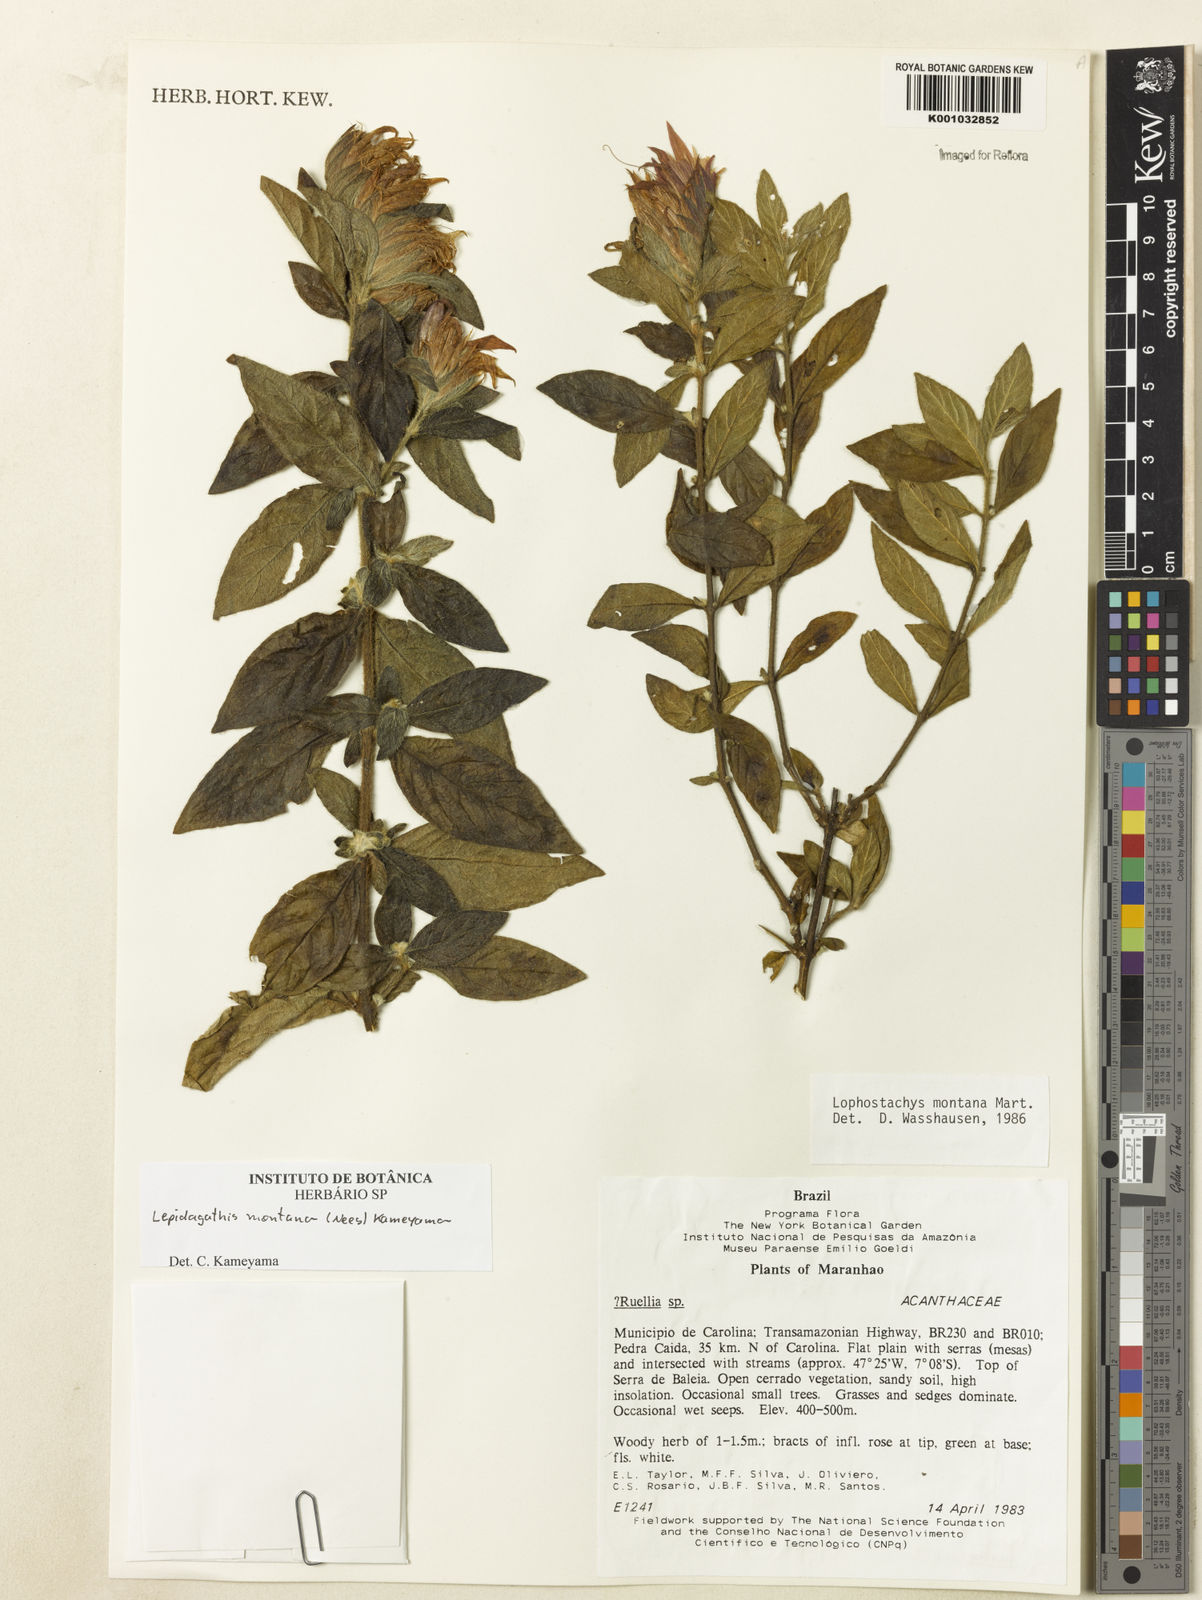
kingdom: Plantae
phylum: Tracheophyta
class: Magnoliopsida
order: Lamiales
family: Acanthaceae
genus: Lepidagathis
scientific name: Lepidagathis montana
